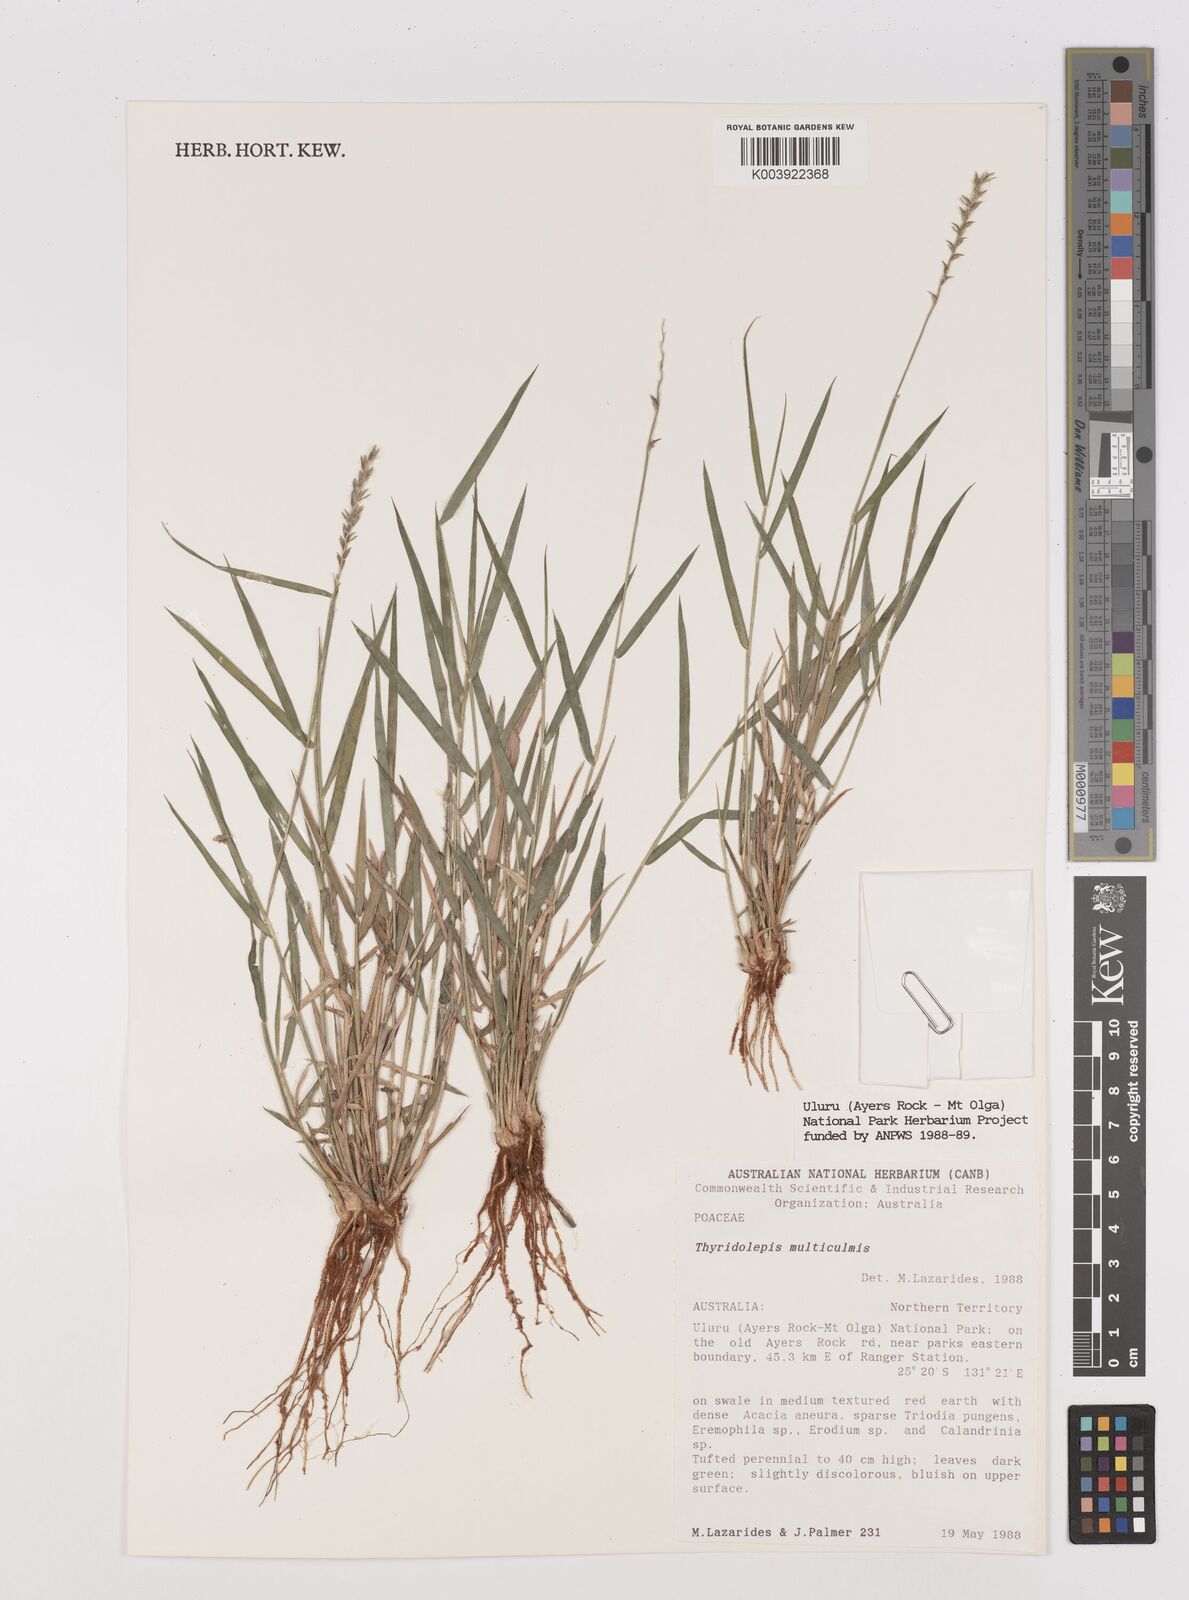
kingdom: Plantae
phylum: Tracheophyta
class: Liliopsida
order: Poales
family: Poaceae
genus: Thyridolepis
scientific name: Thyridolepis mitchelliana
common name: Rock tassel grass
